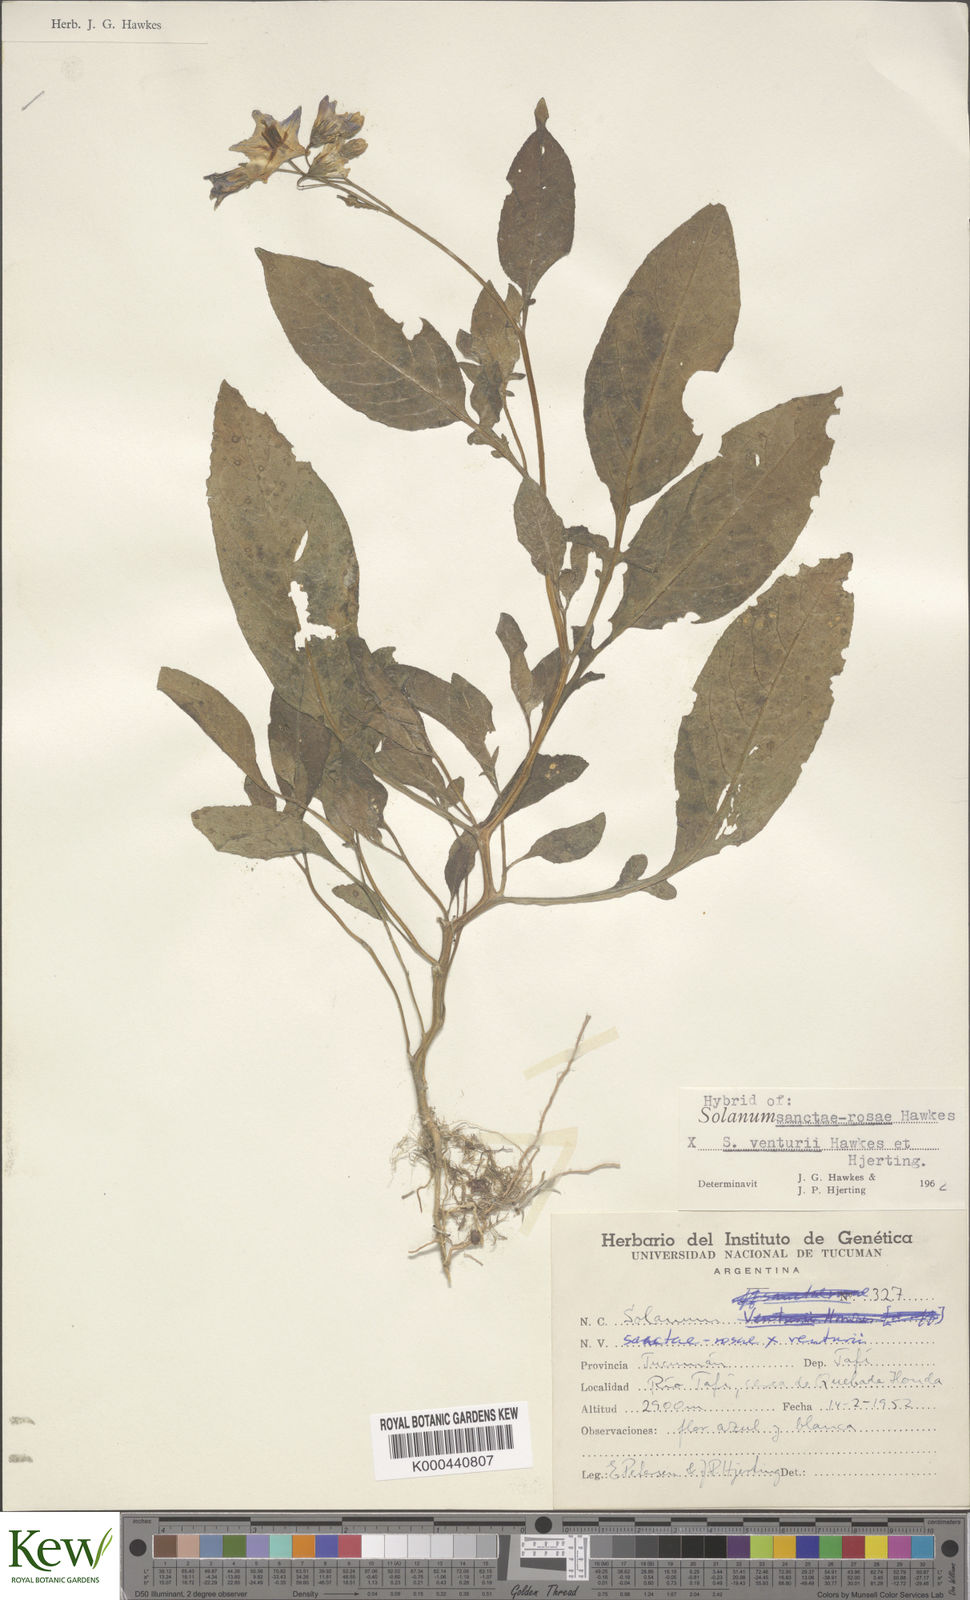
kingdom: Plantae
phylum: Tracheophyta
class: Magnoliopsida
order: Solanales
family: Solanaceae
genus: Solanum
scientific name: Solanum boliviense
